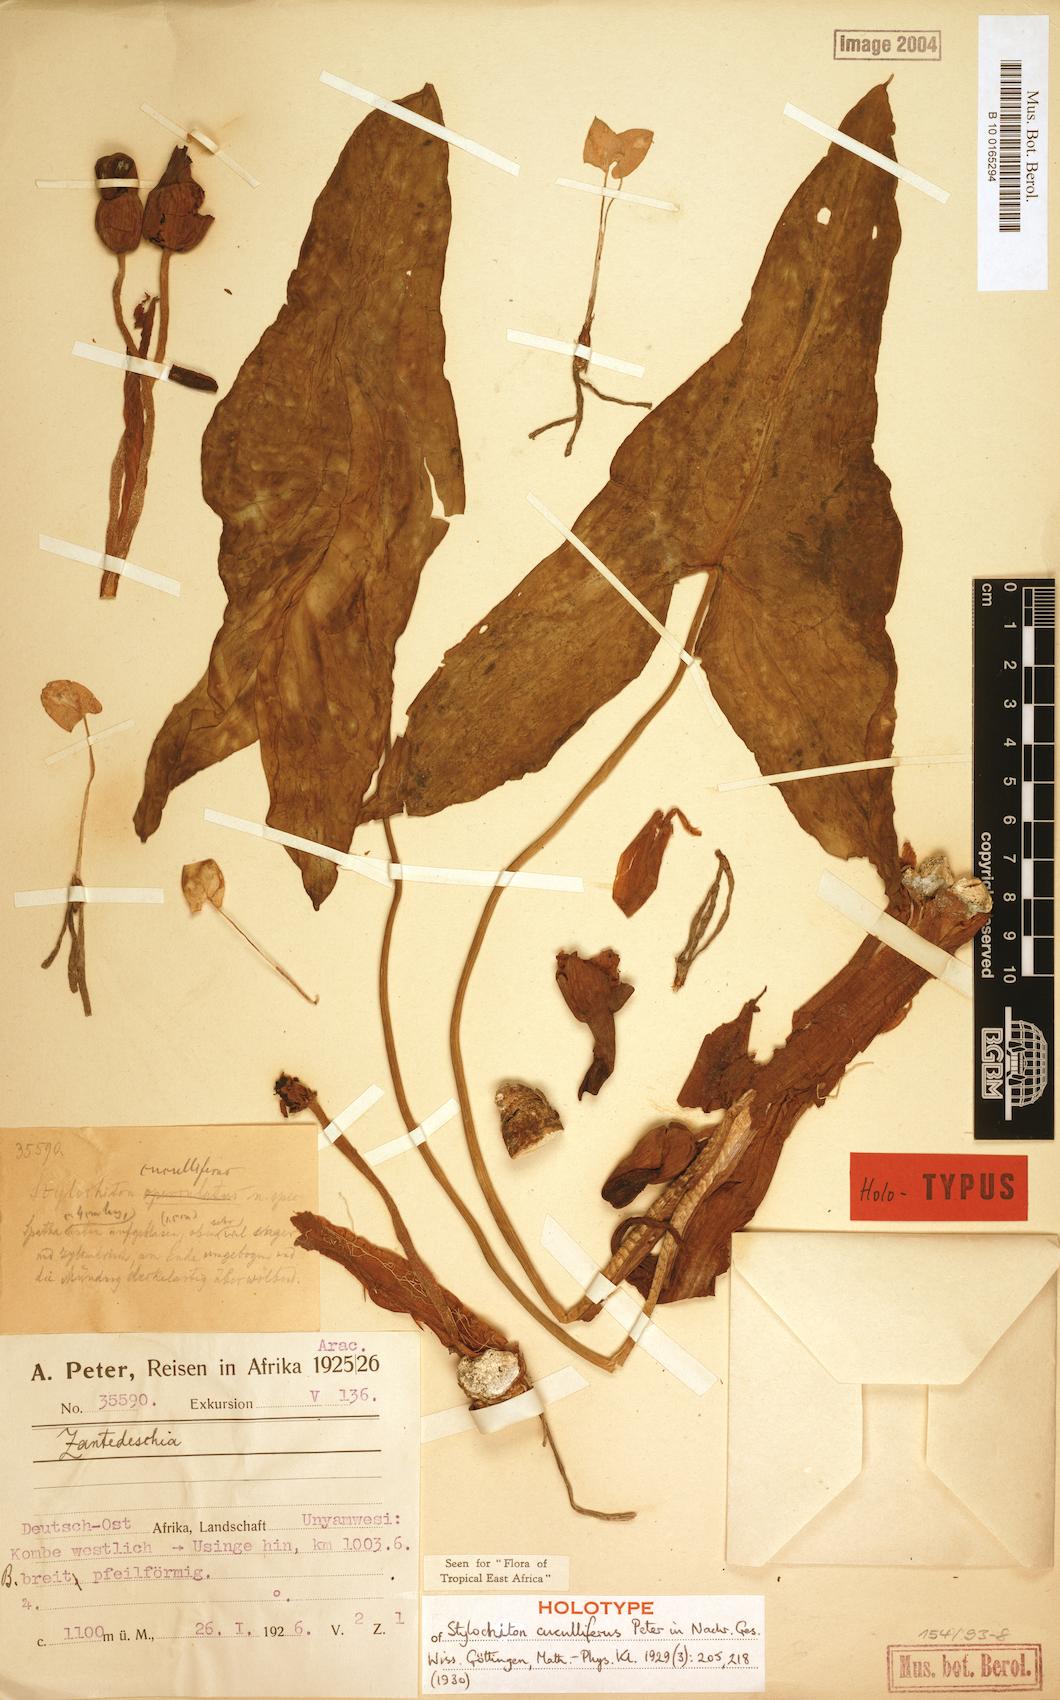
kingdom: Plantae
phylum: Tracheophyta
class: Liliopsida
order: Alismatales
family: Araceae
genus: Stylochaeton
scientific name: Stylochaeton cuculliferum
